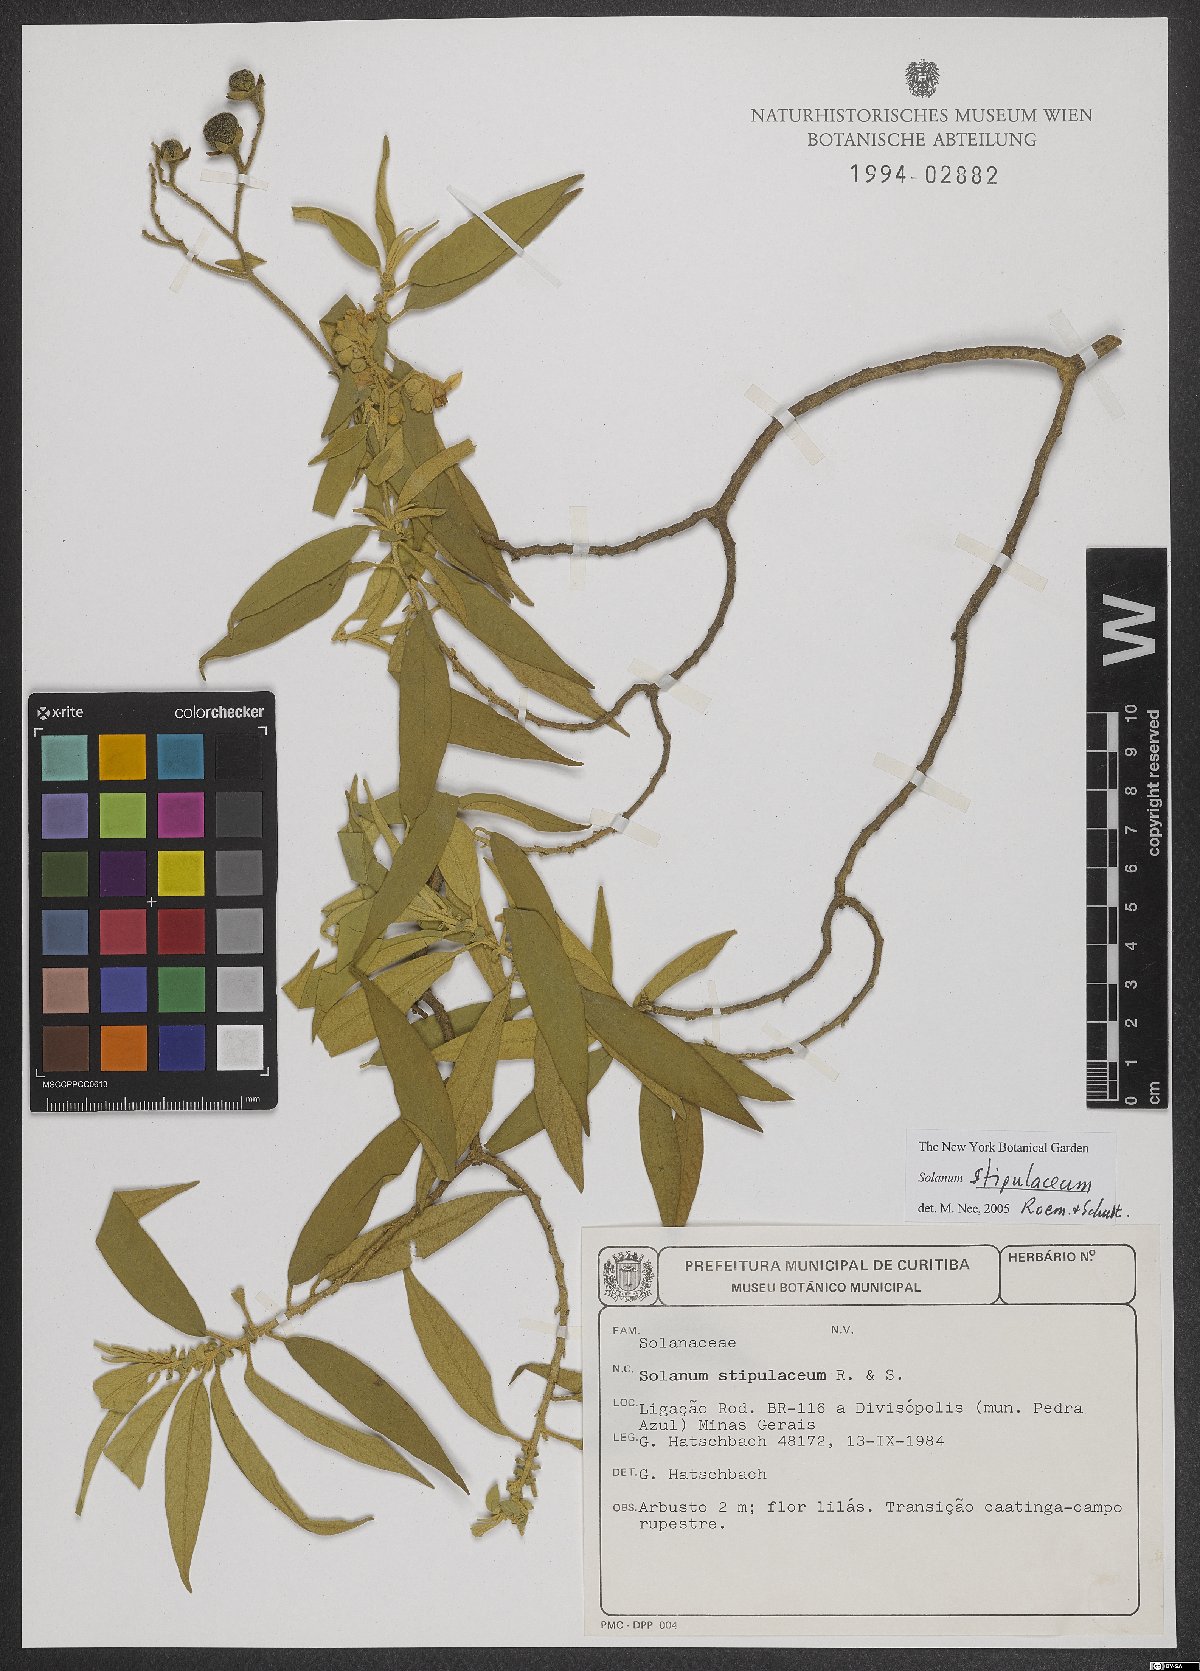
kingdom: Plantae
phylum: Tracheophyta
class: Magnoliopsida
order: Solanales
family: Solanaceae
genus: Solanum
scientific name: Solanum stipulaceum
